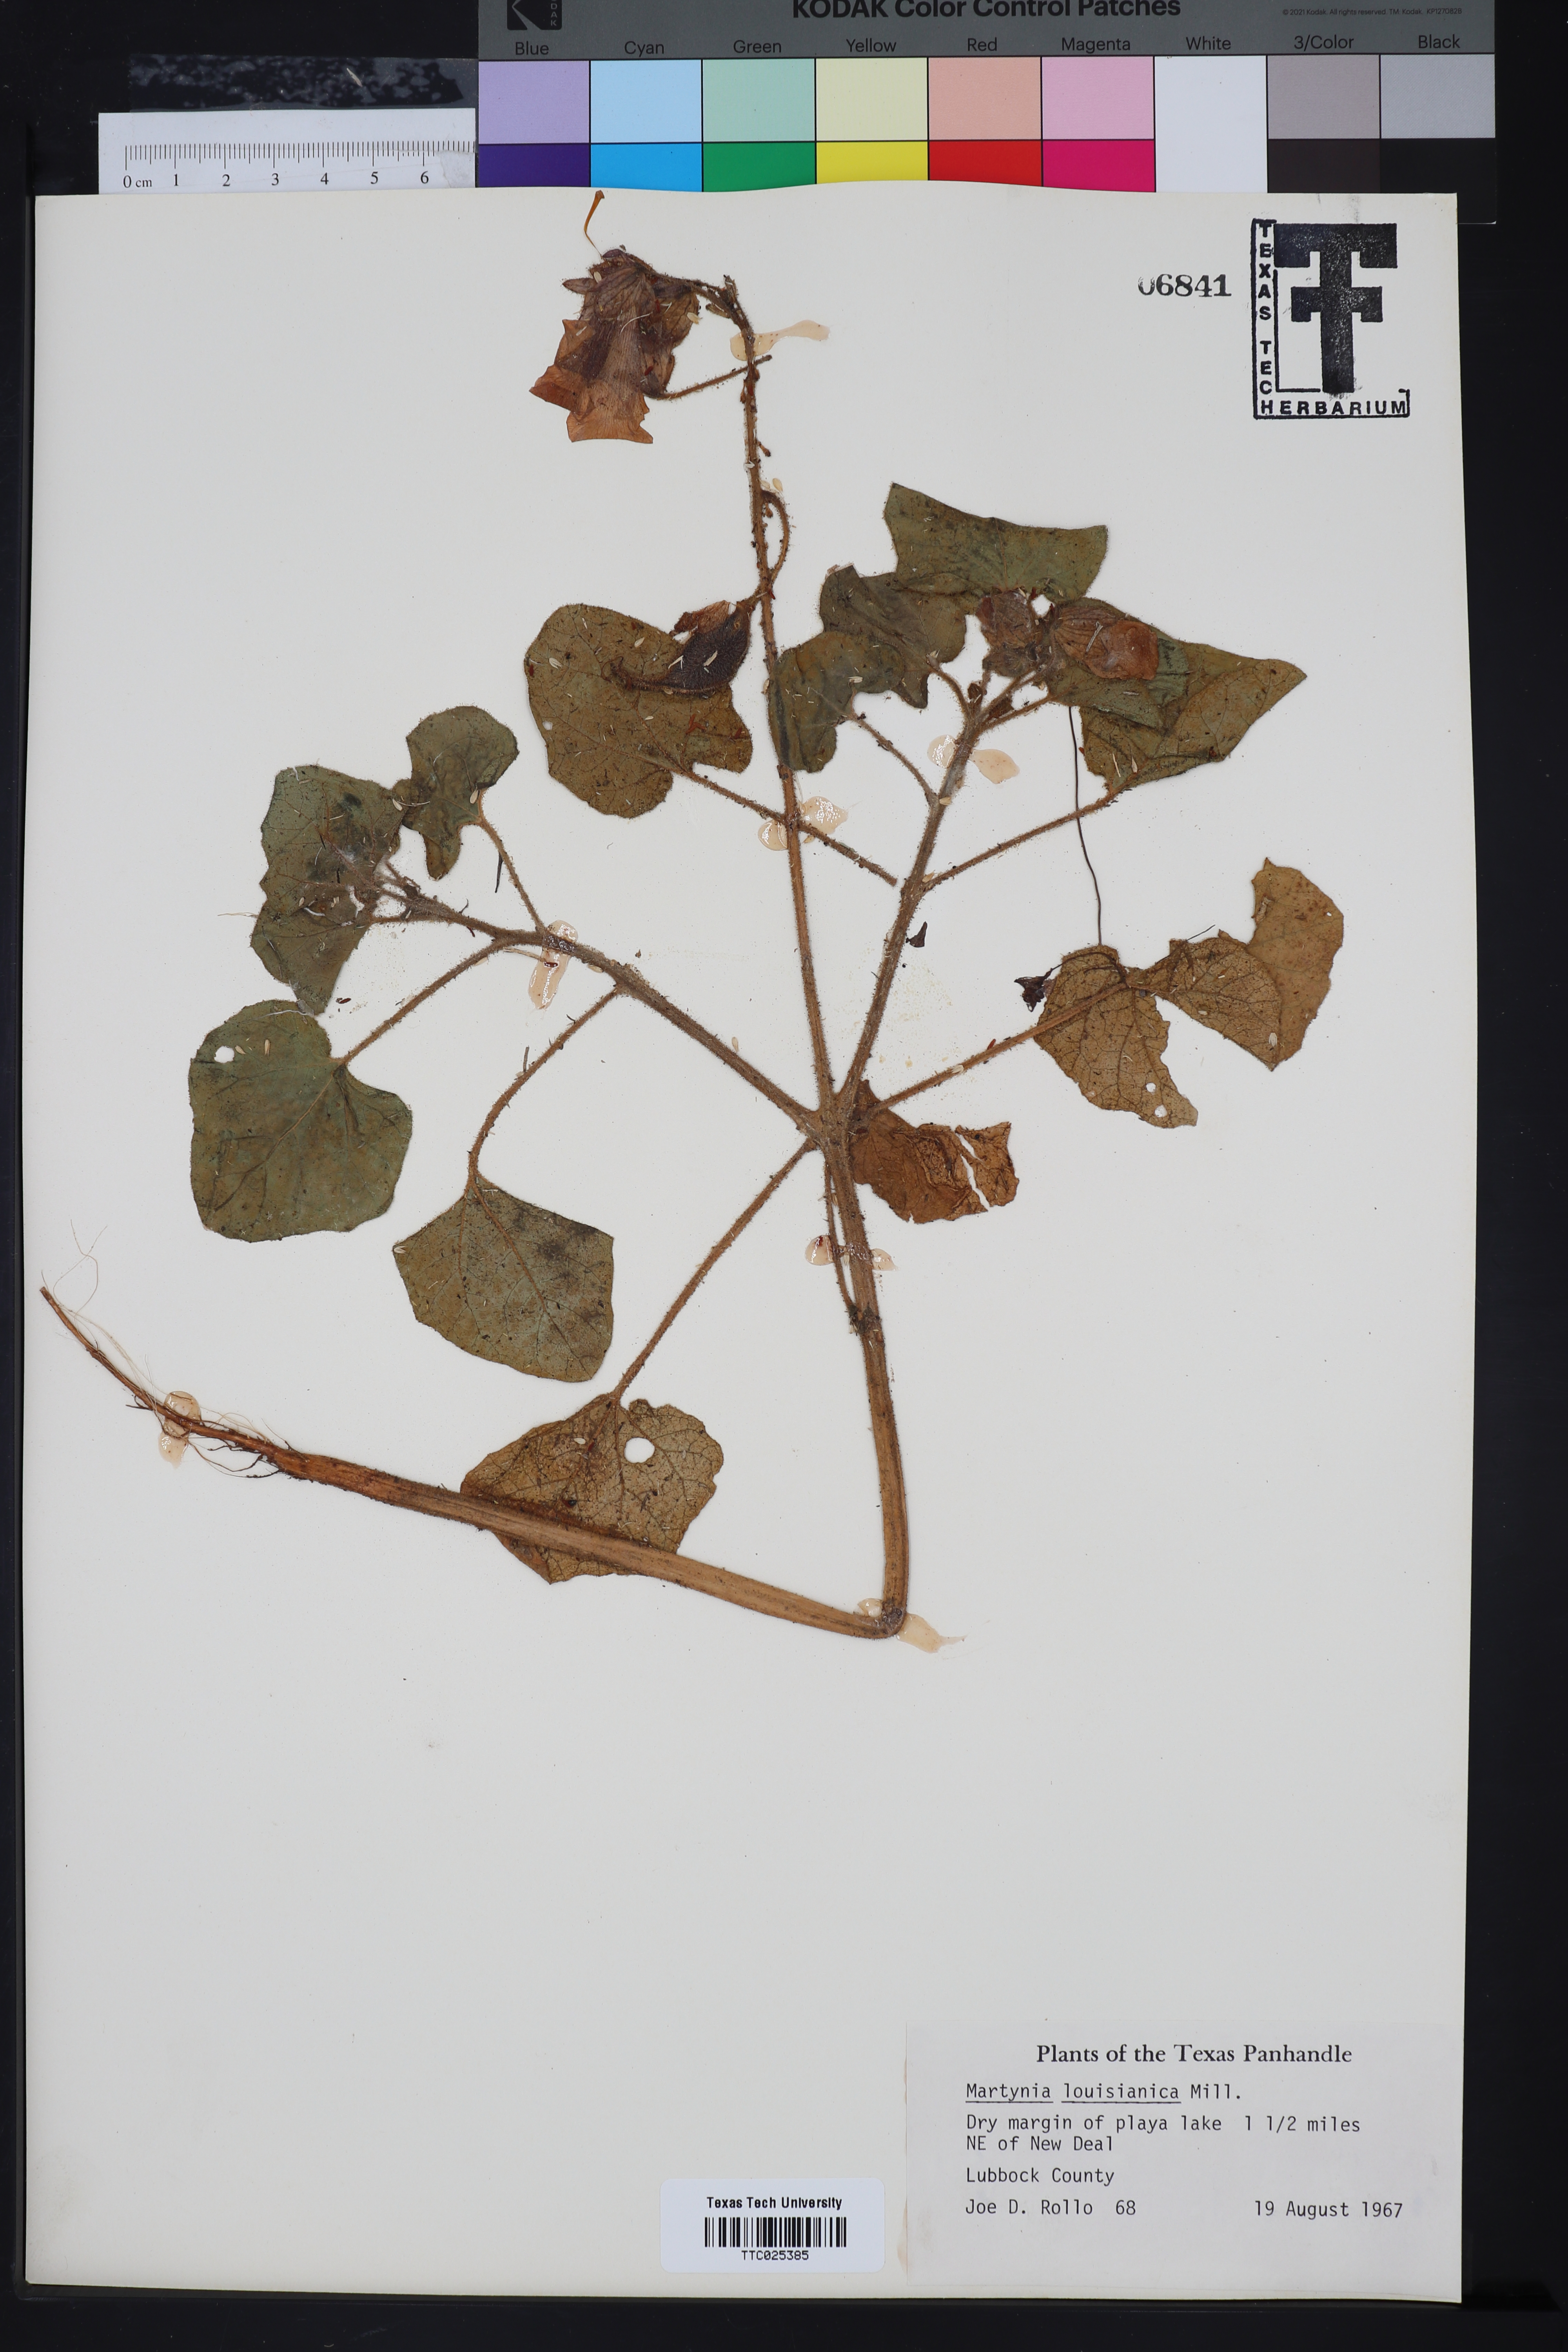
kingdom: Plantae
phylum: Tracheophyta
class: Magnoliopsida
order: Lamiales
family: Martyniaceae
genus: Proboscidea
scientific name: Proboscidea louisianica
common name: Elephant tusks
